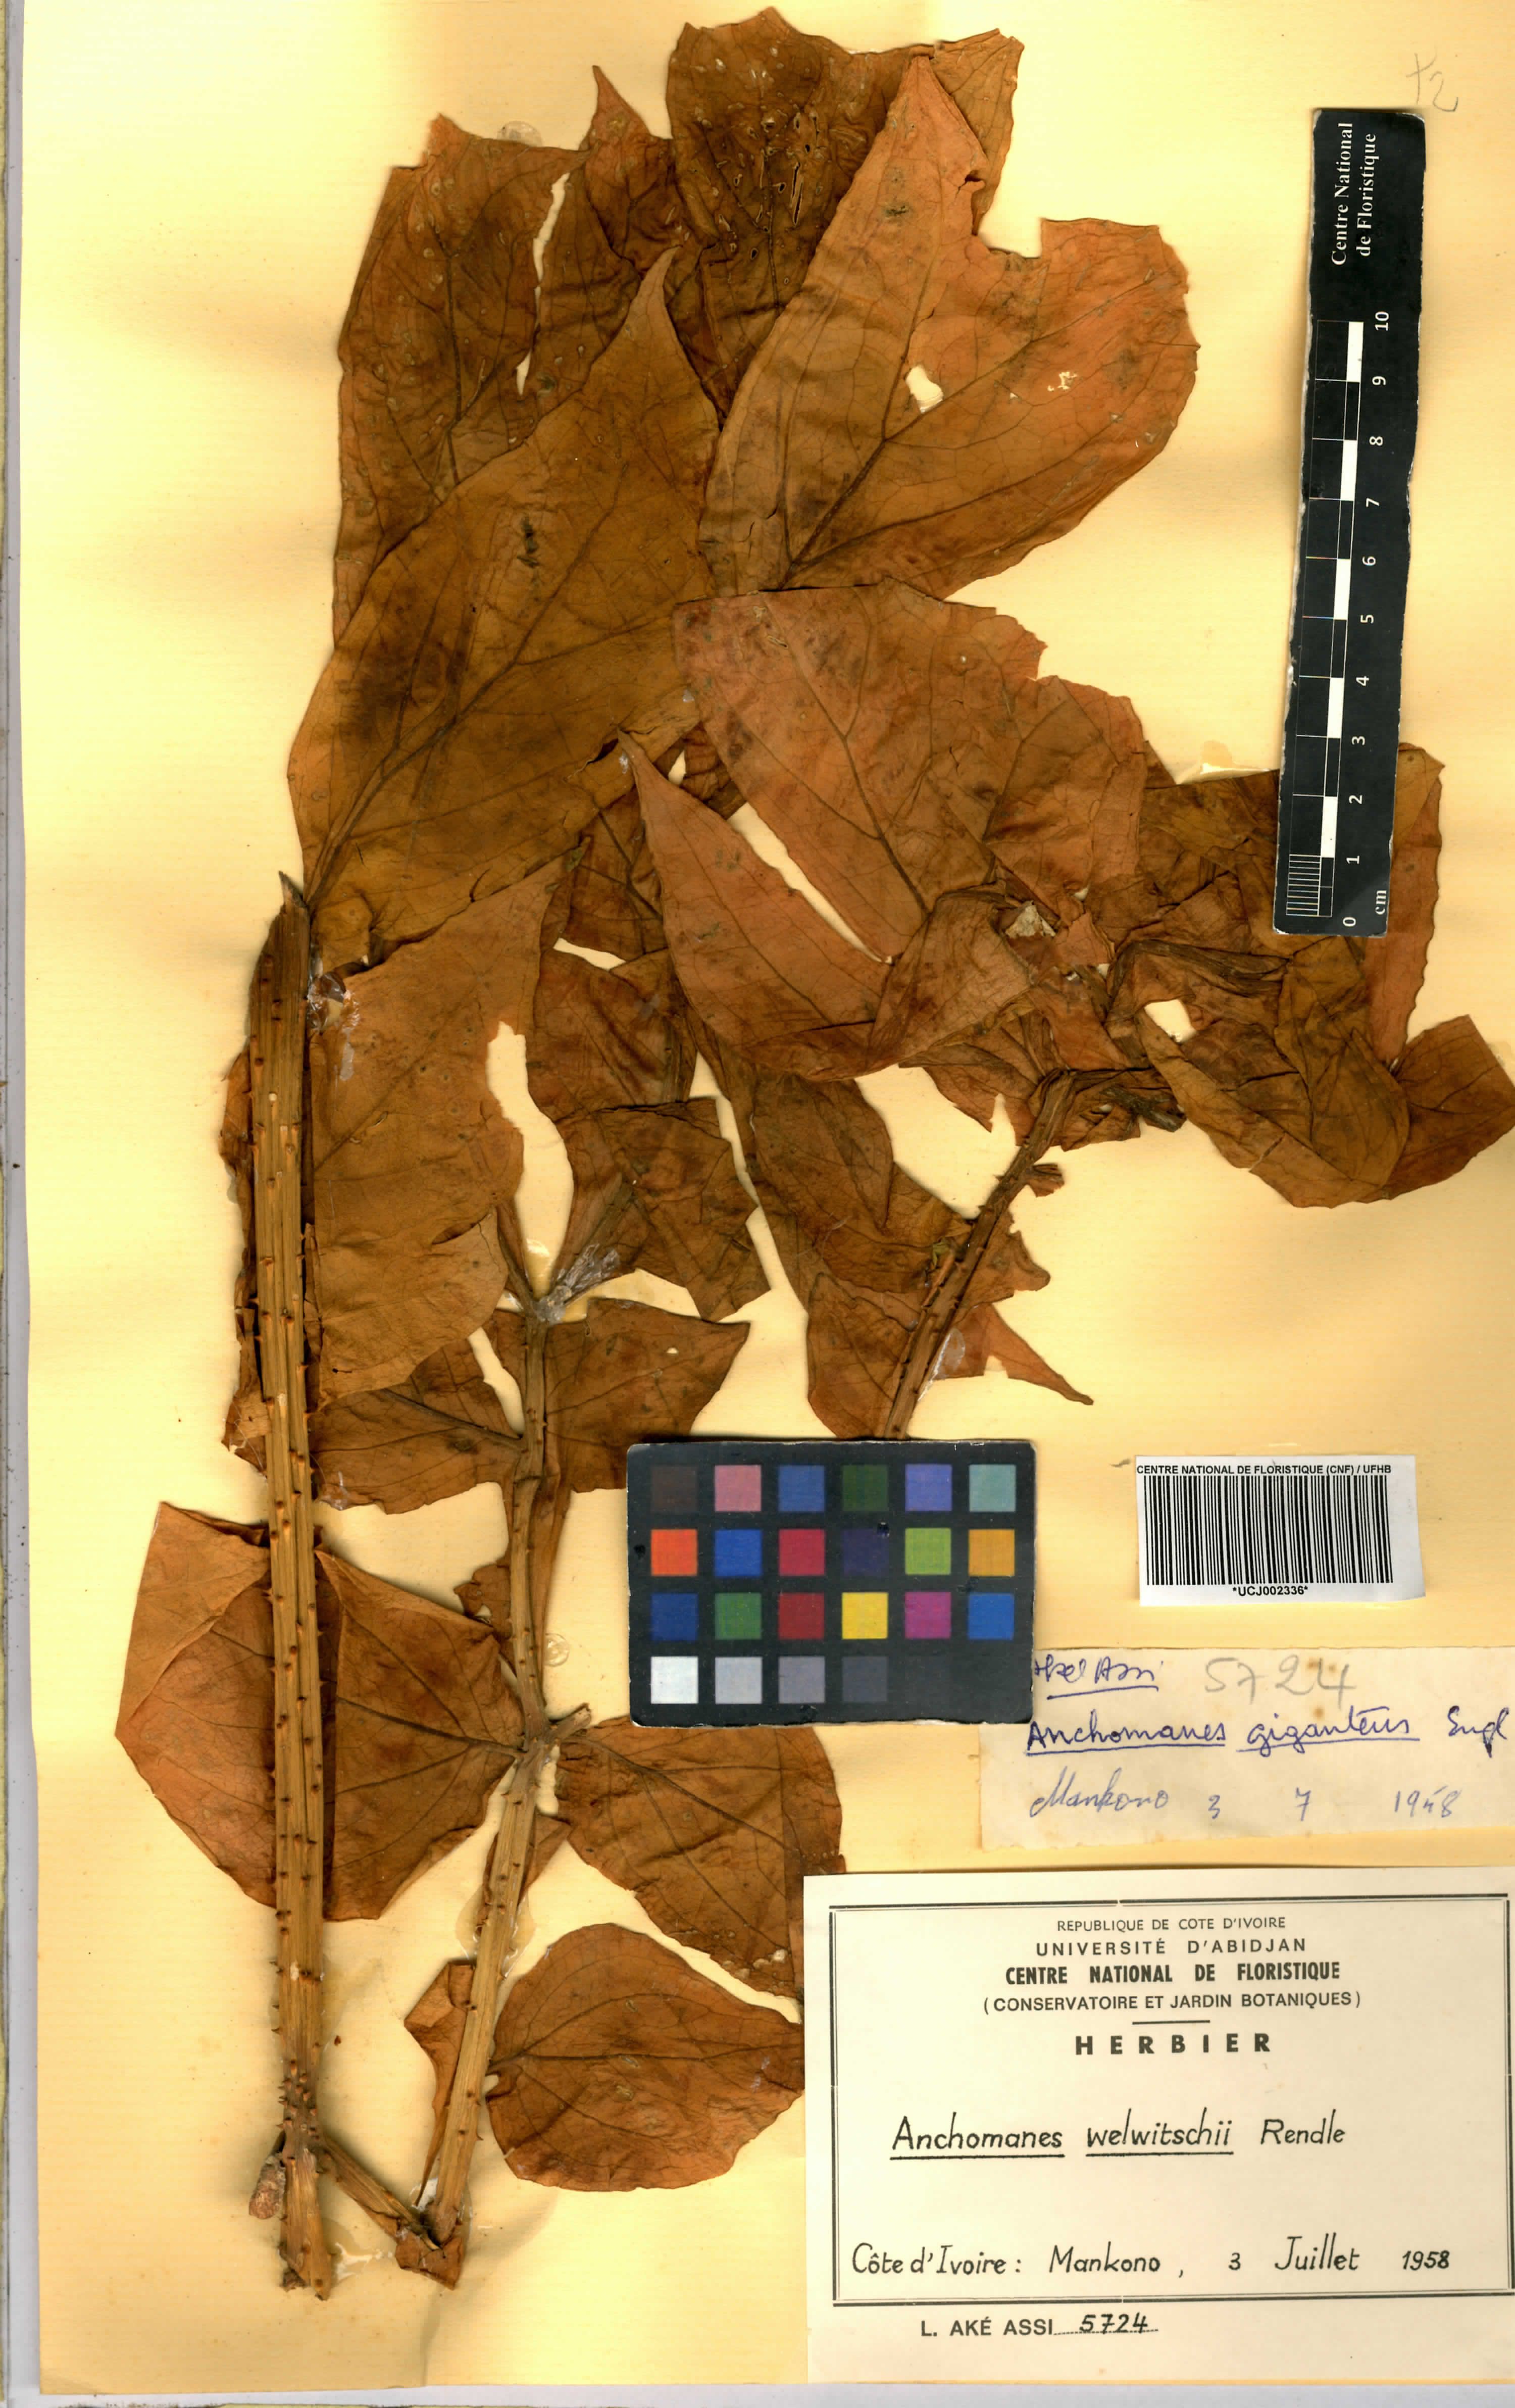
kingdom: Plantae
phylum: Tracheophyta
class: Liliopsida
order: Alismatales
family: Araceae
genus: Anchomanes
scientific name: Anchomanes difformis
